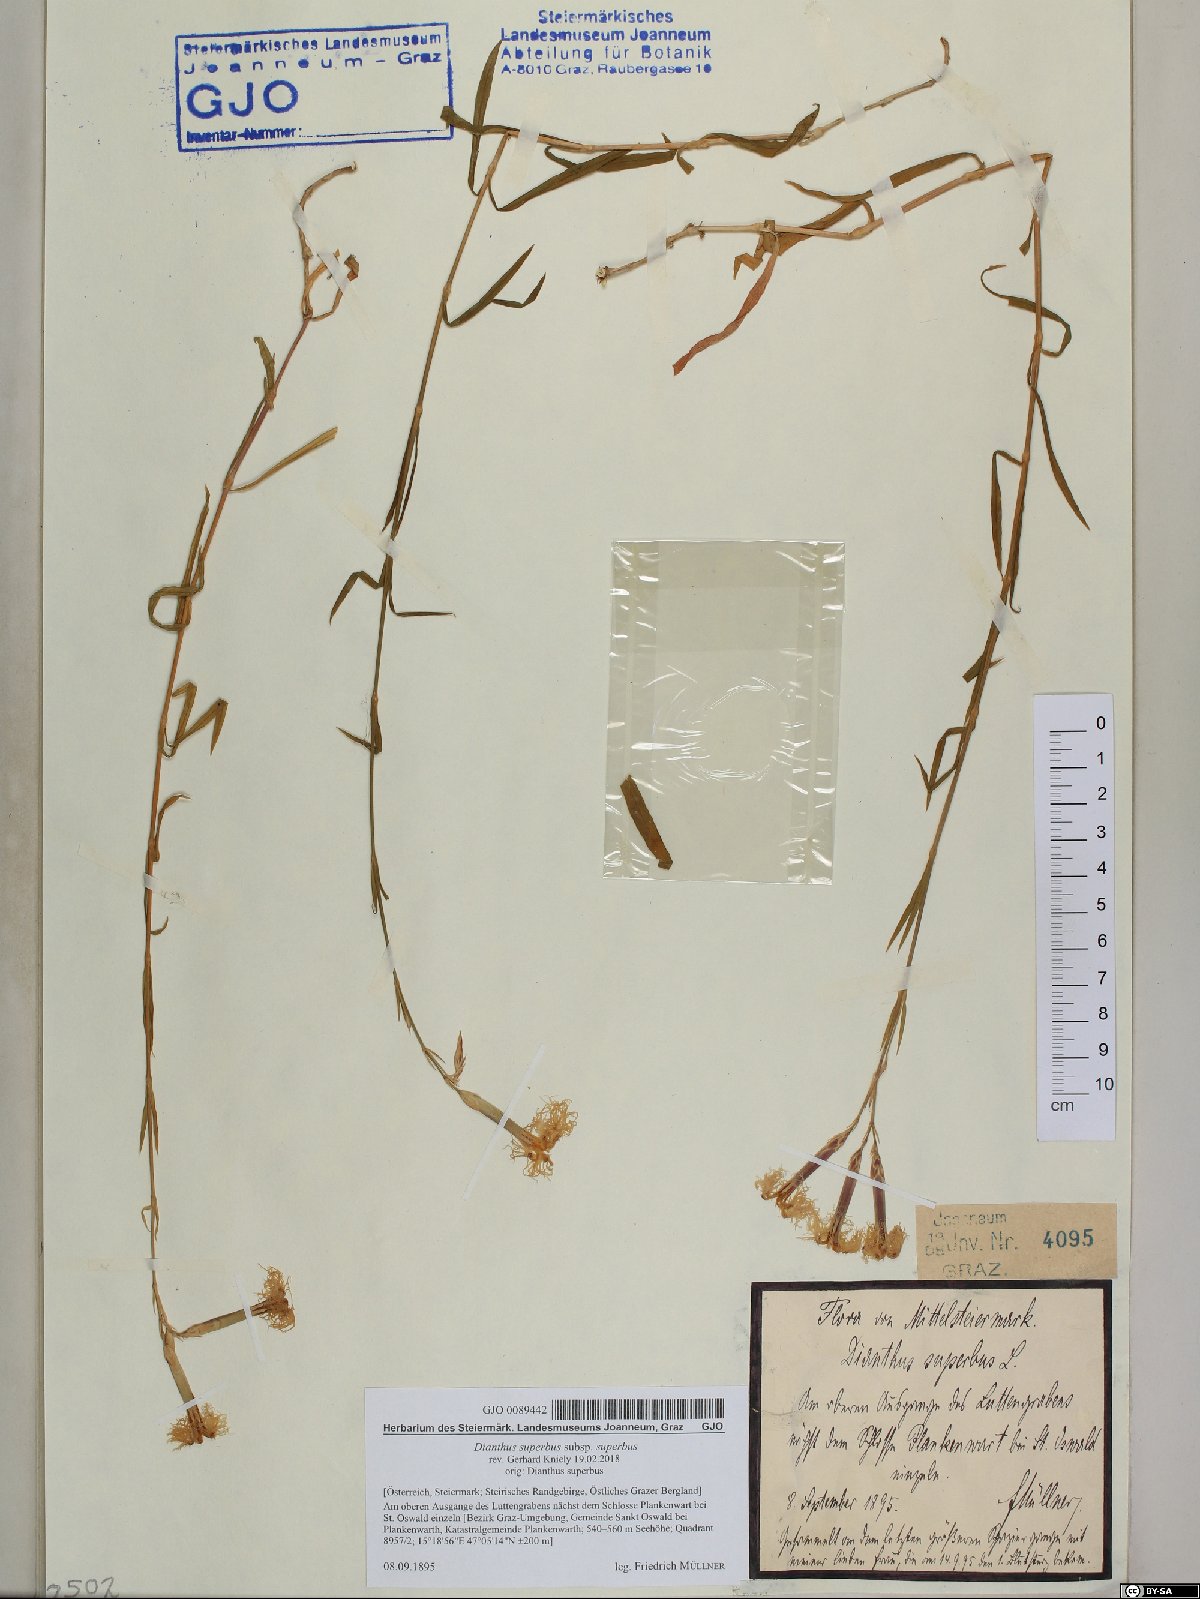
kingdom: Plantae
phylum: Tracheophyta
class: Magnoliopsida
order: Caryophyllales
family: Caryophyllaceae
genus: Dianthus
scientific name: Dianthus superbus
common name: Fringed pink
